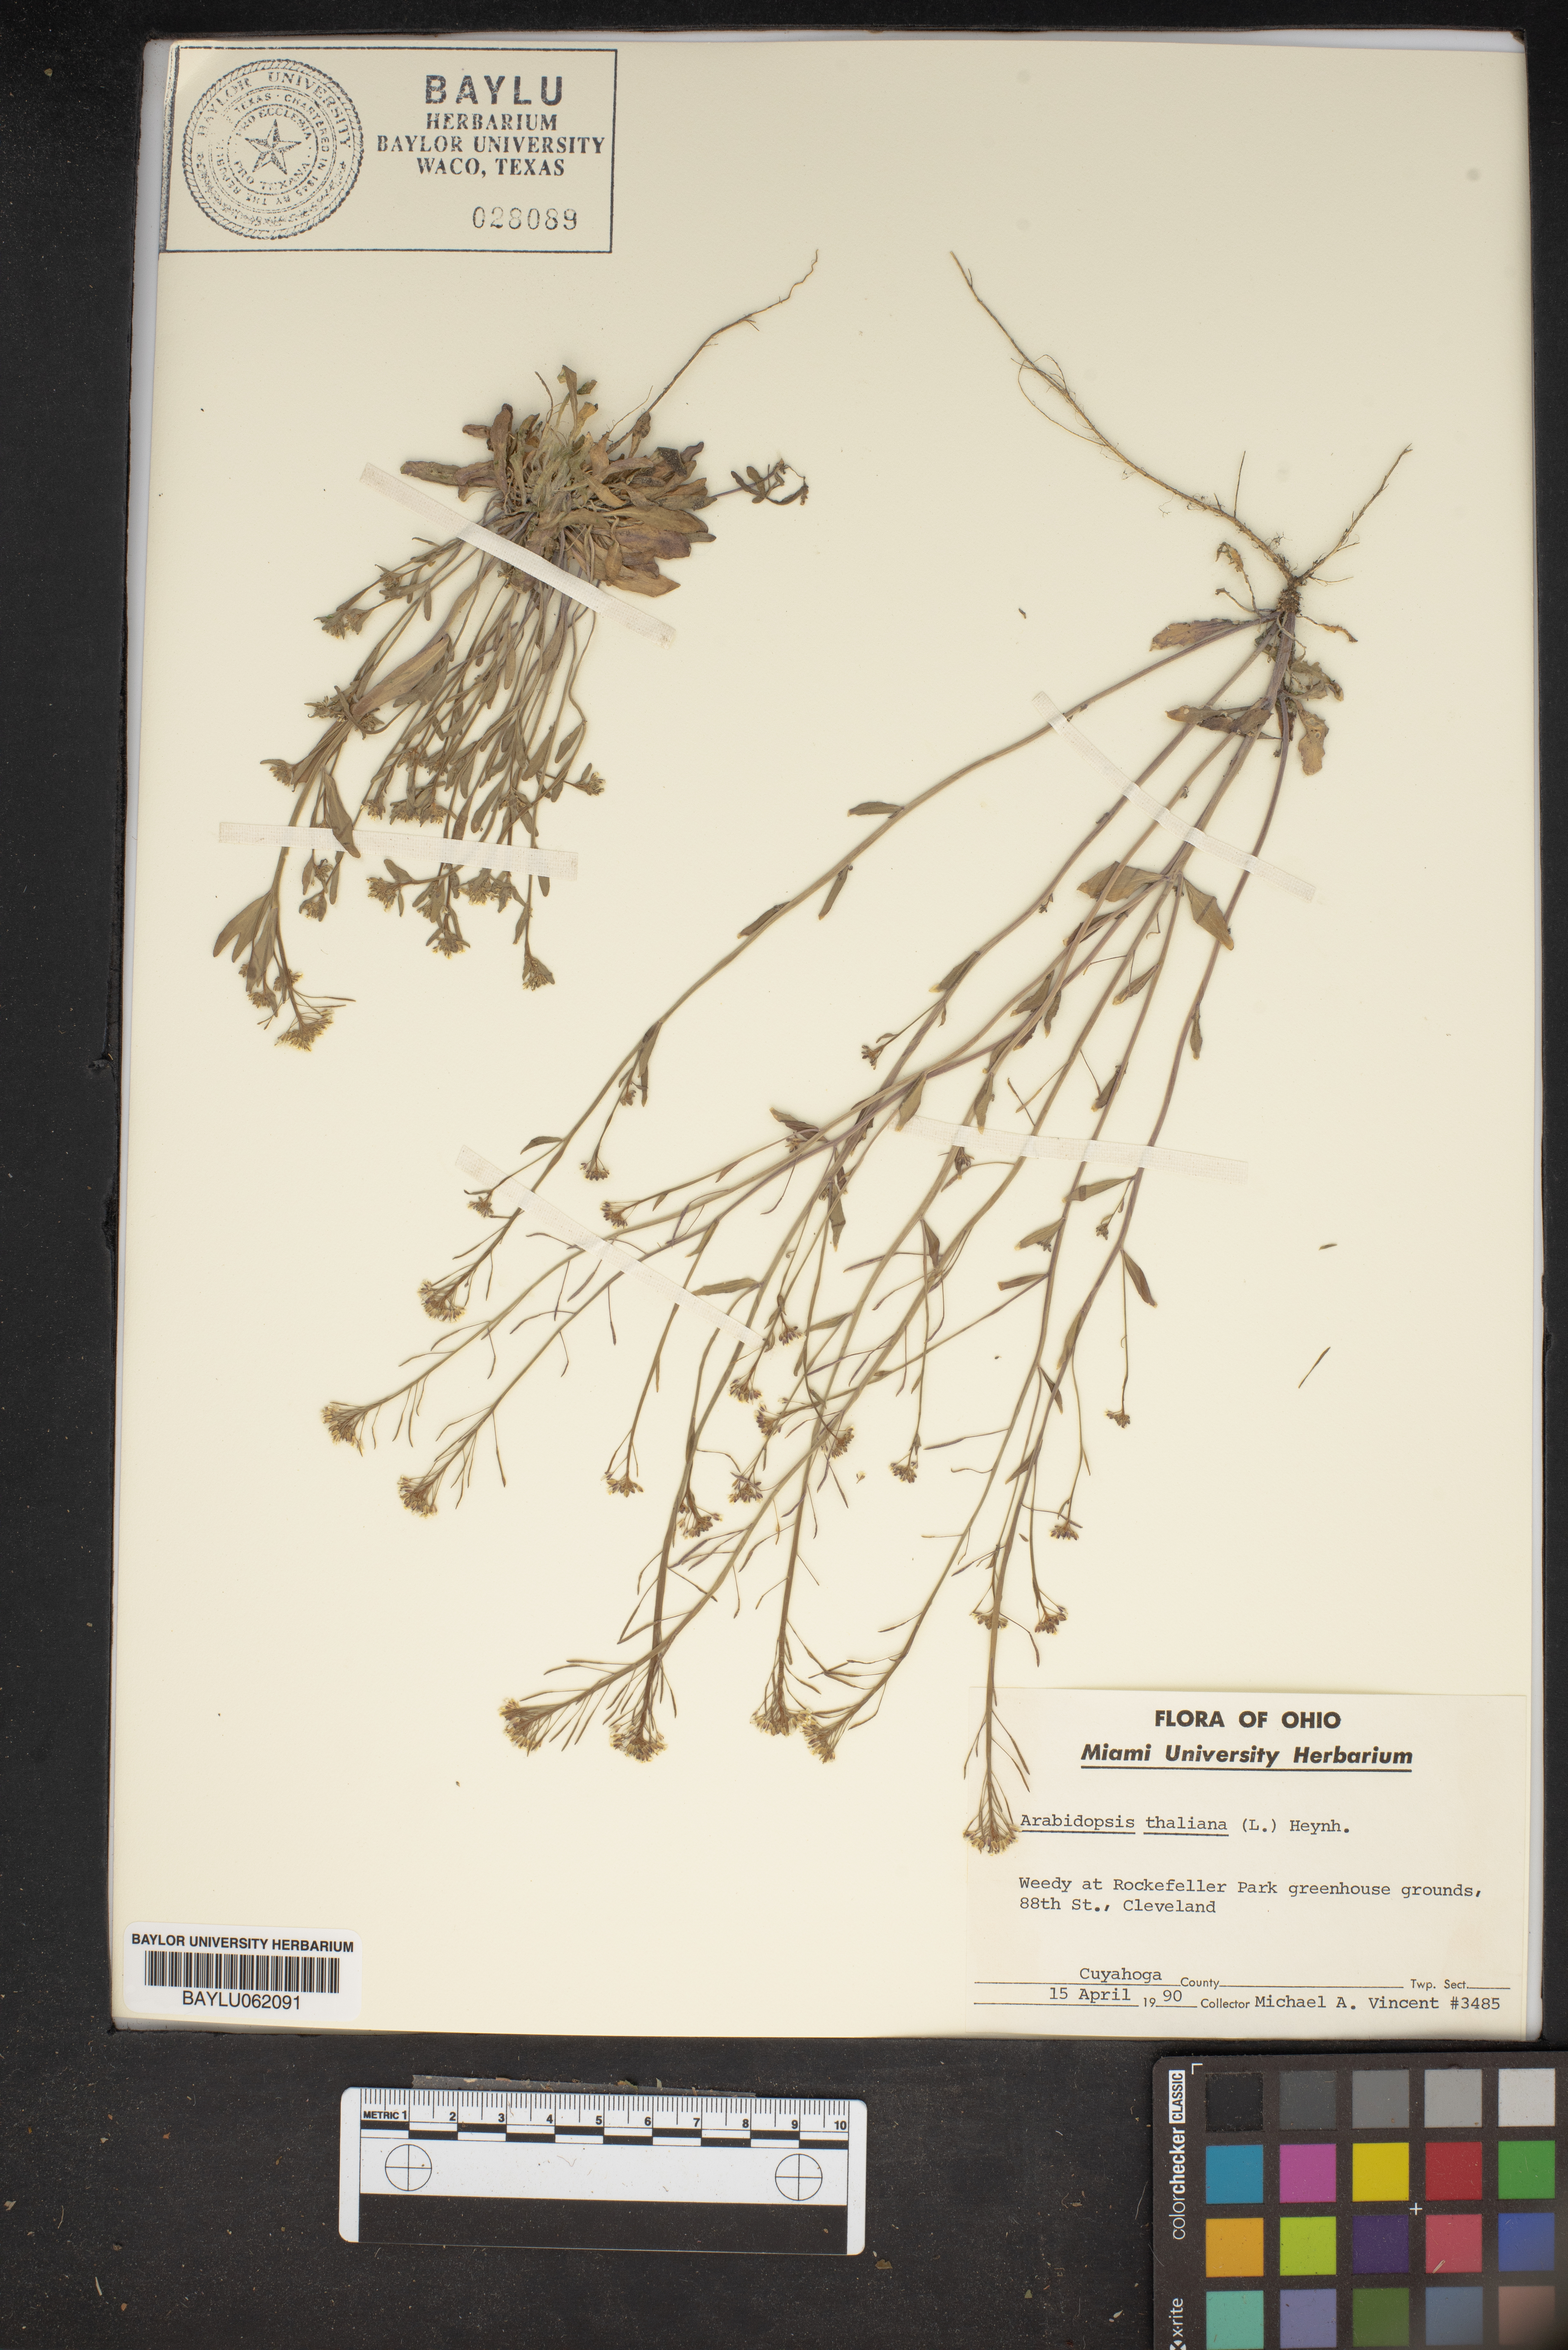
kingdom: Plantae
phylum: Tracheophyta
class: Magnoliopsida
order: Brassicales
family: Brassicaceae
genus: Arabidopsis
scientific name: Arabidopsis thaliana
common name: Thale cress
